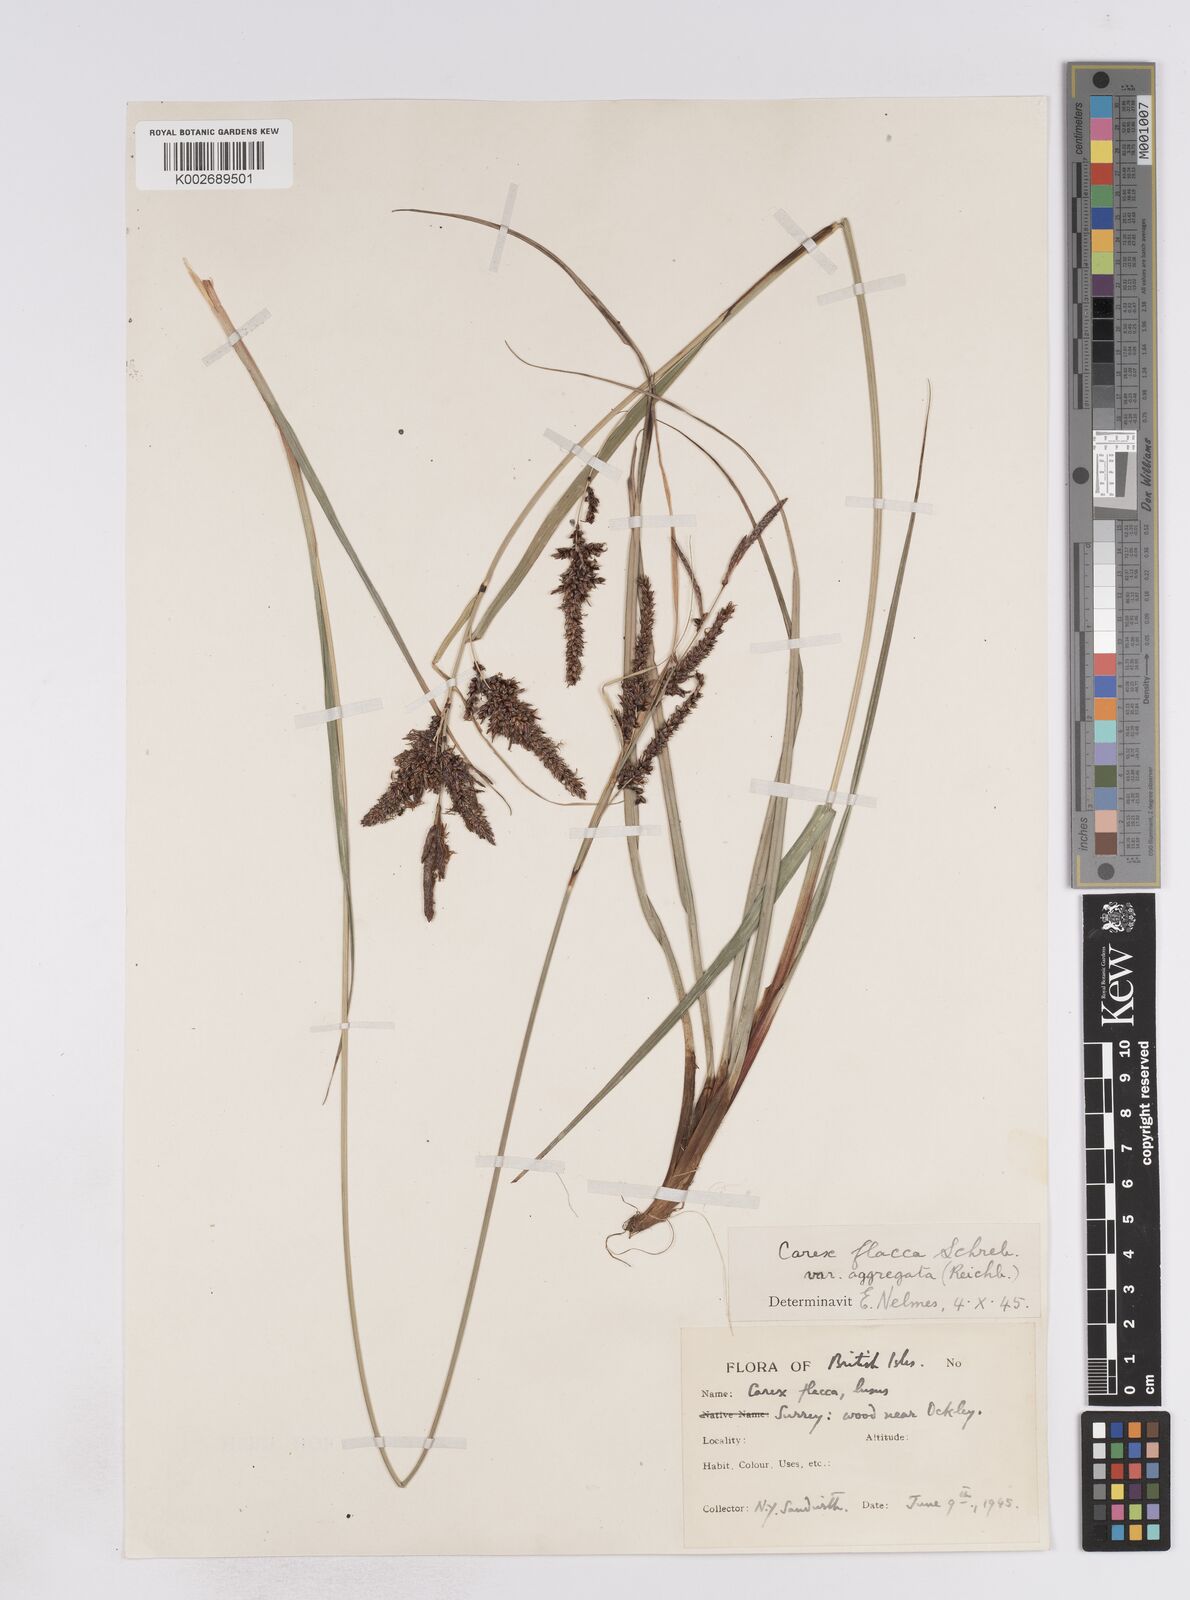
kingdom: Plantae
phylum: Tracheophyta
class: Liliopsida
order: Poales
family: Cyperaceae
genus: Carex
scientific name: Carex flacca
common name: Glaucous sedge
